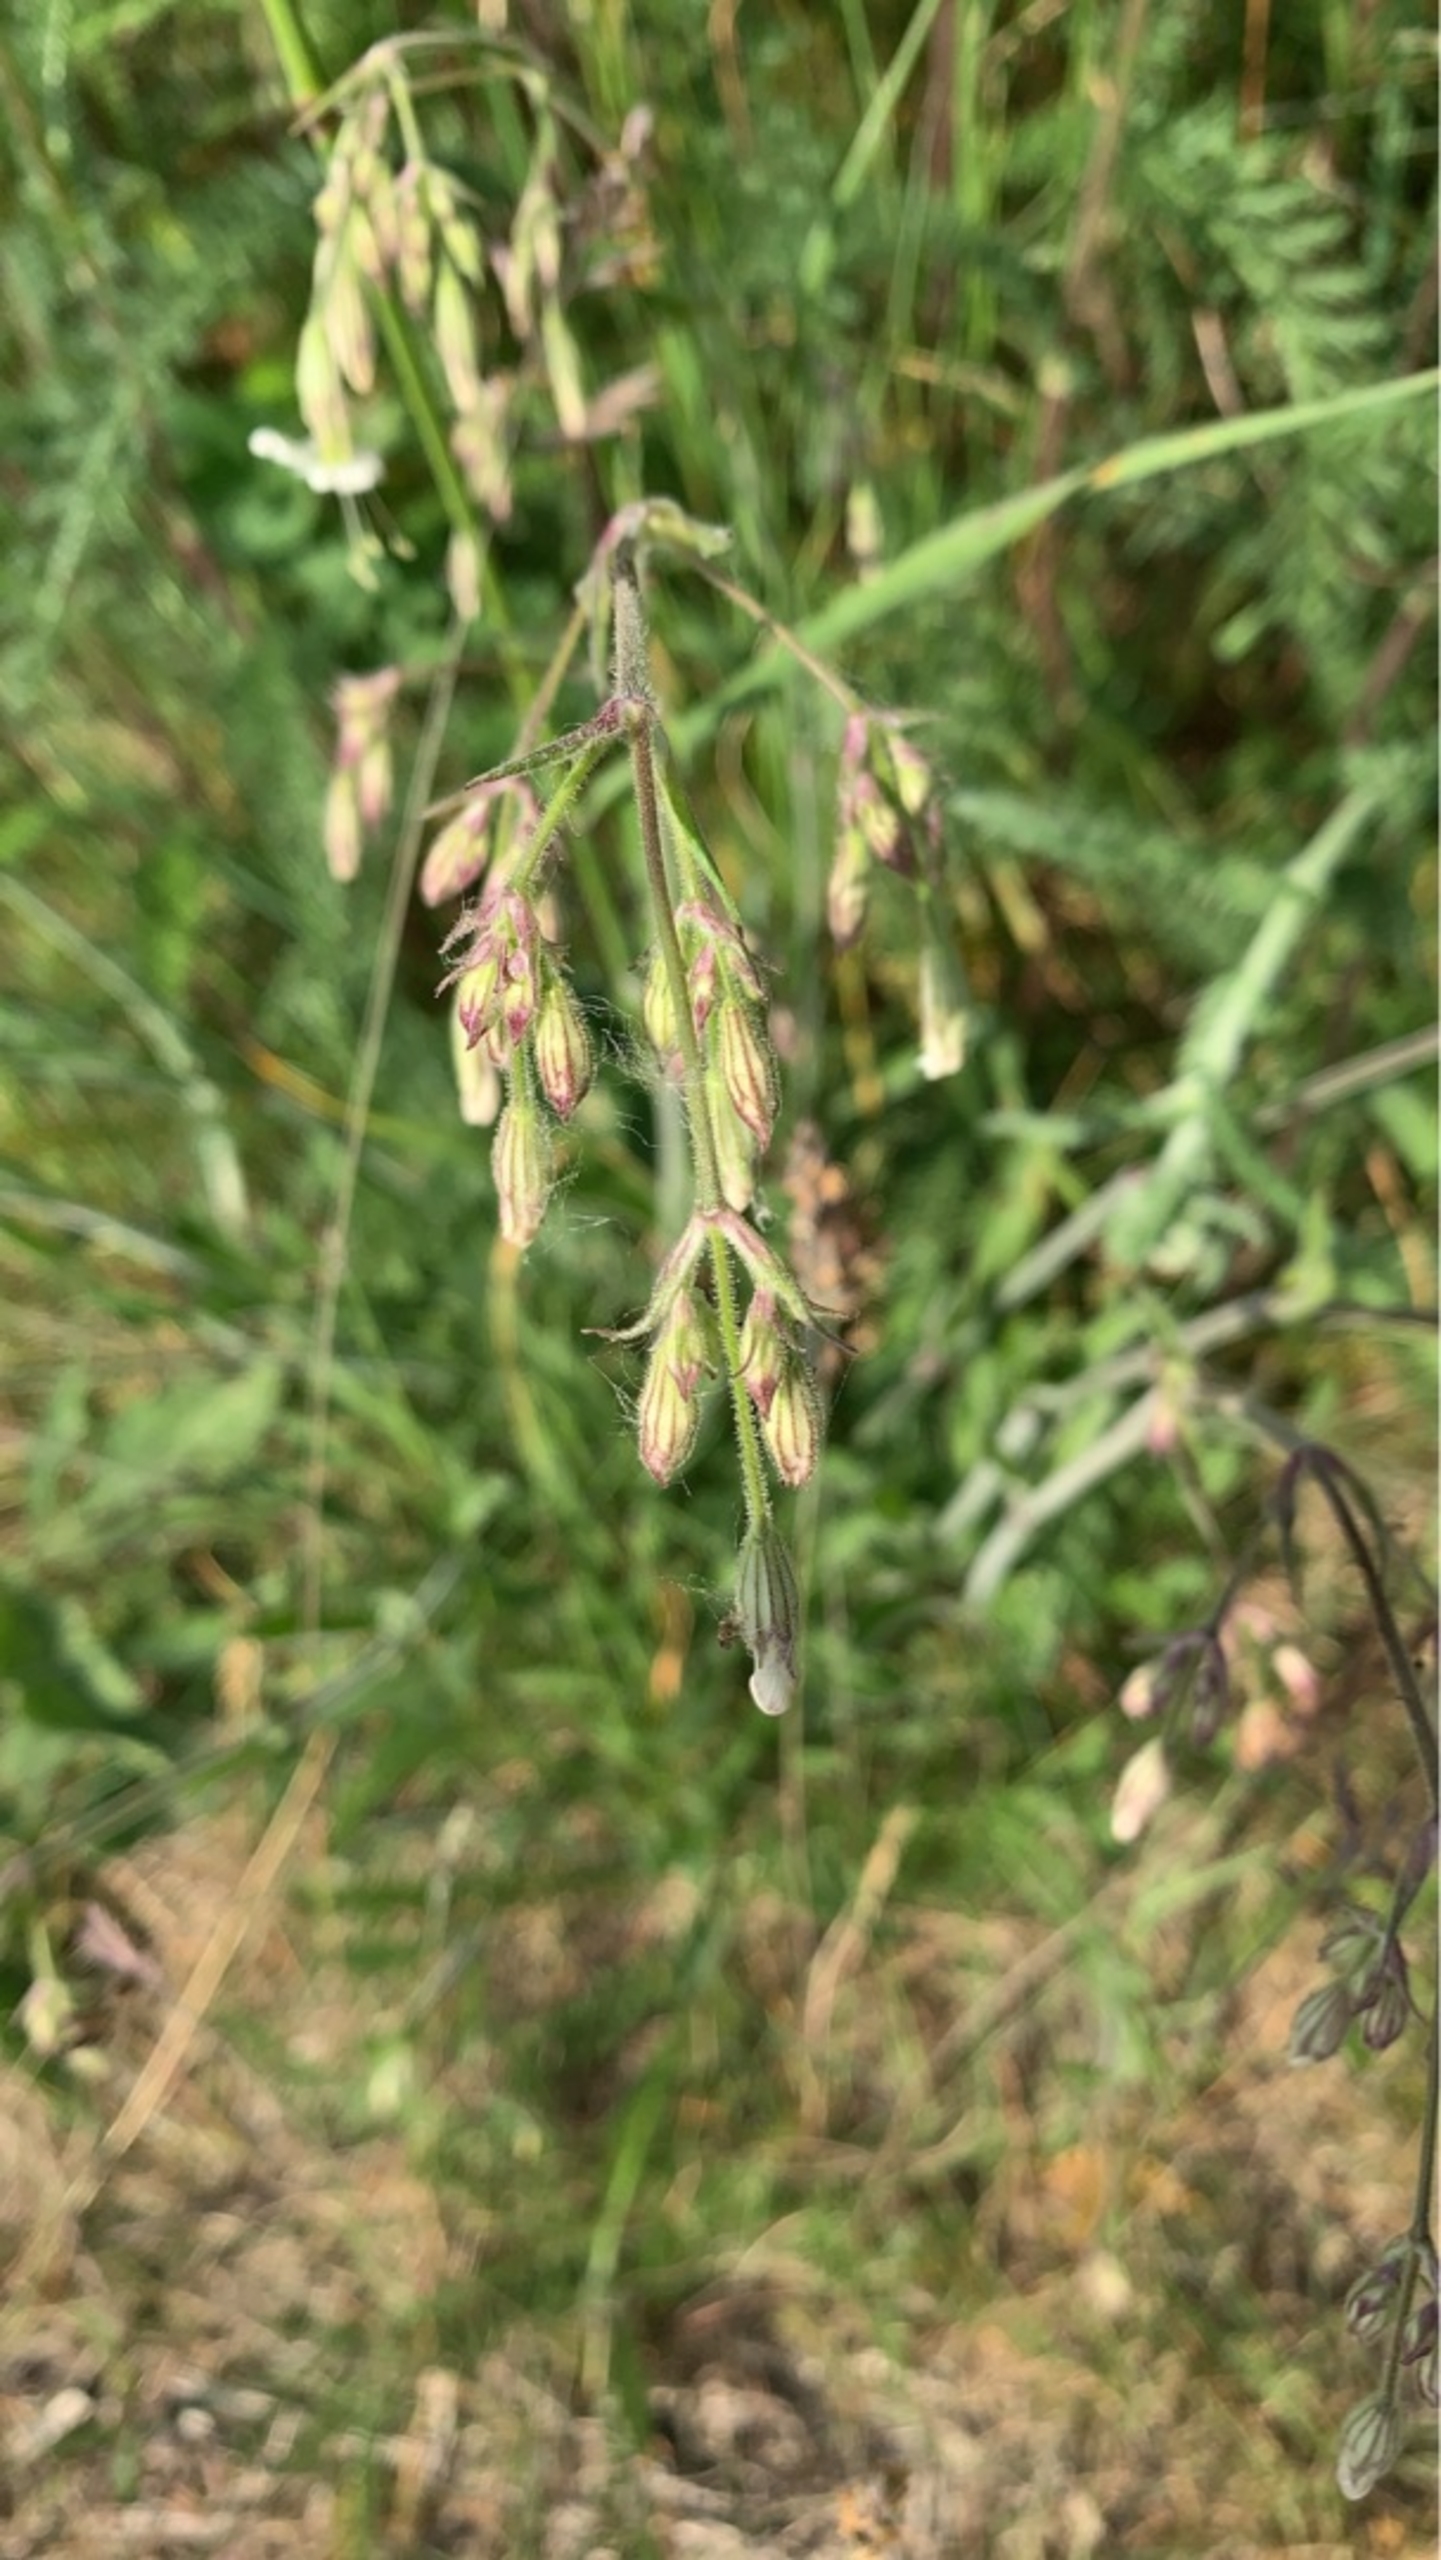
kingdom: Plantae
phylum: Tracheophyta
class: Magnoliopsida
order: Caryophyllales
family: Caryophyllaceae
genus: Silene
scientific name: Silene nutans
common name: Nikkende limurt
